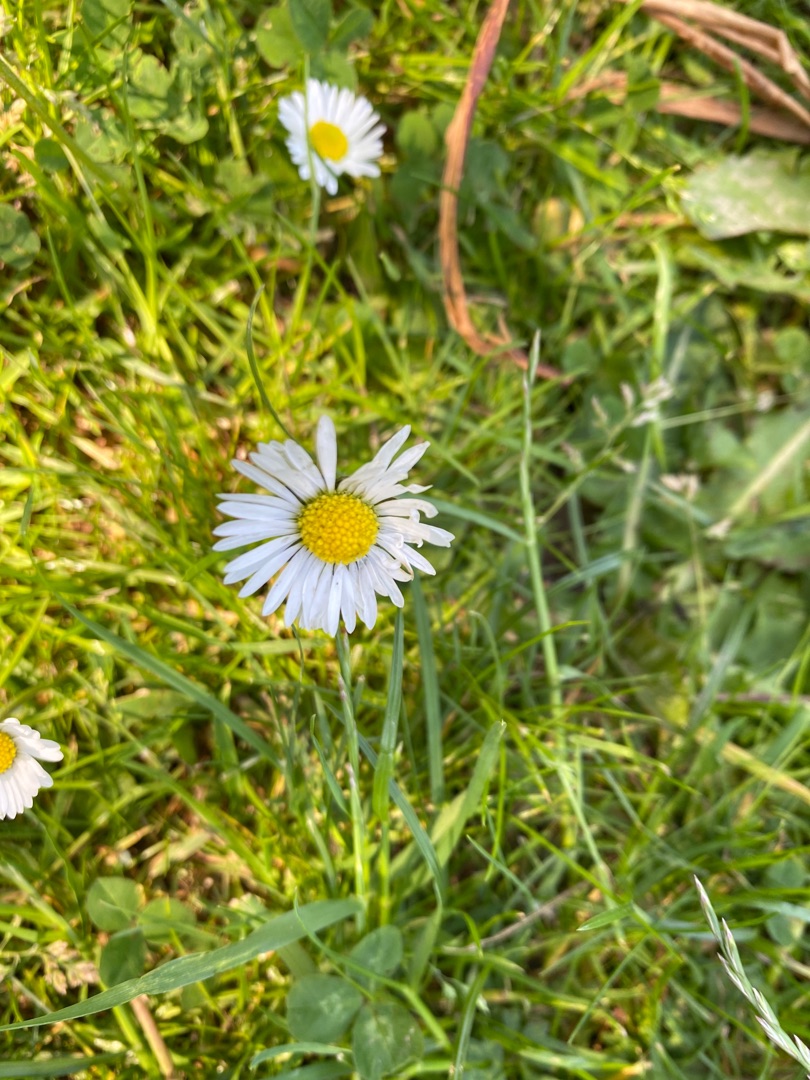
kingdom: Plantae
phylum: Tracheophyta
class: Magnoliopsida
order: Asterales
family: Asteraceae
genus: Bellis
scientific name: Bellis perennis
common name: Tusindfryd
